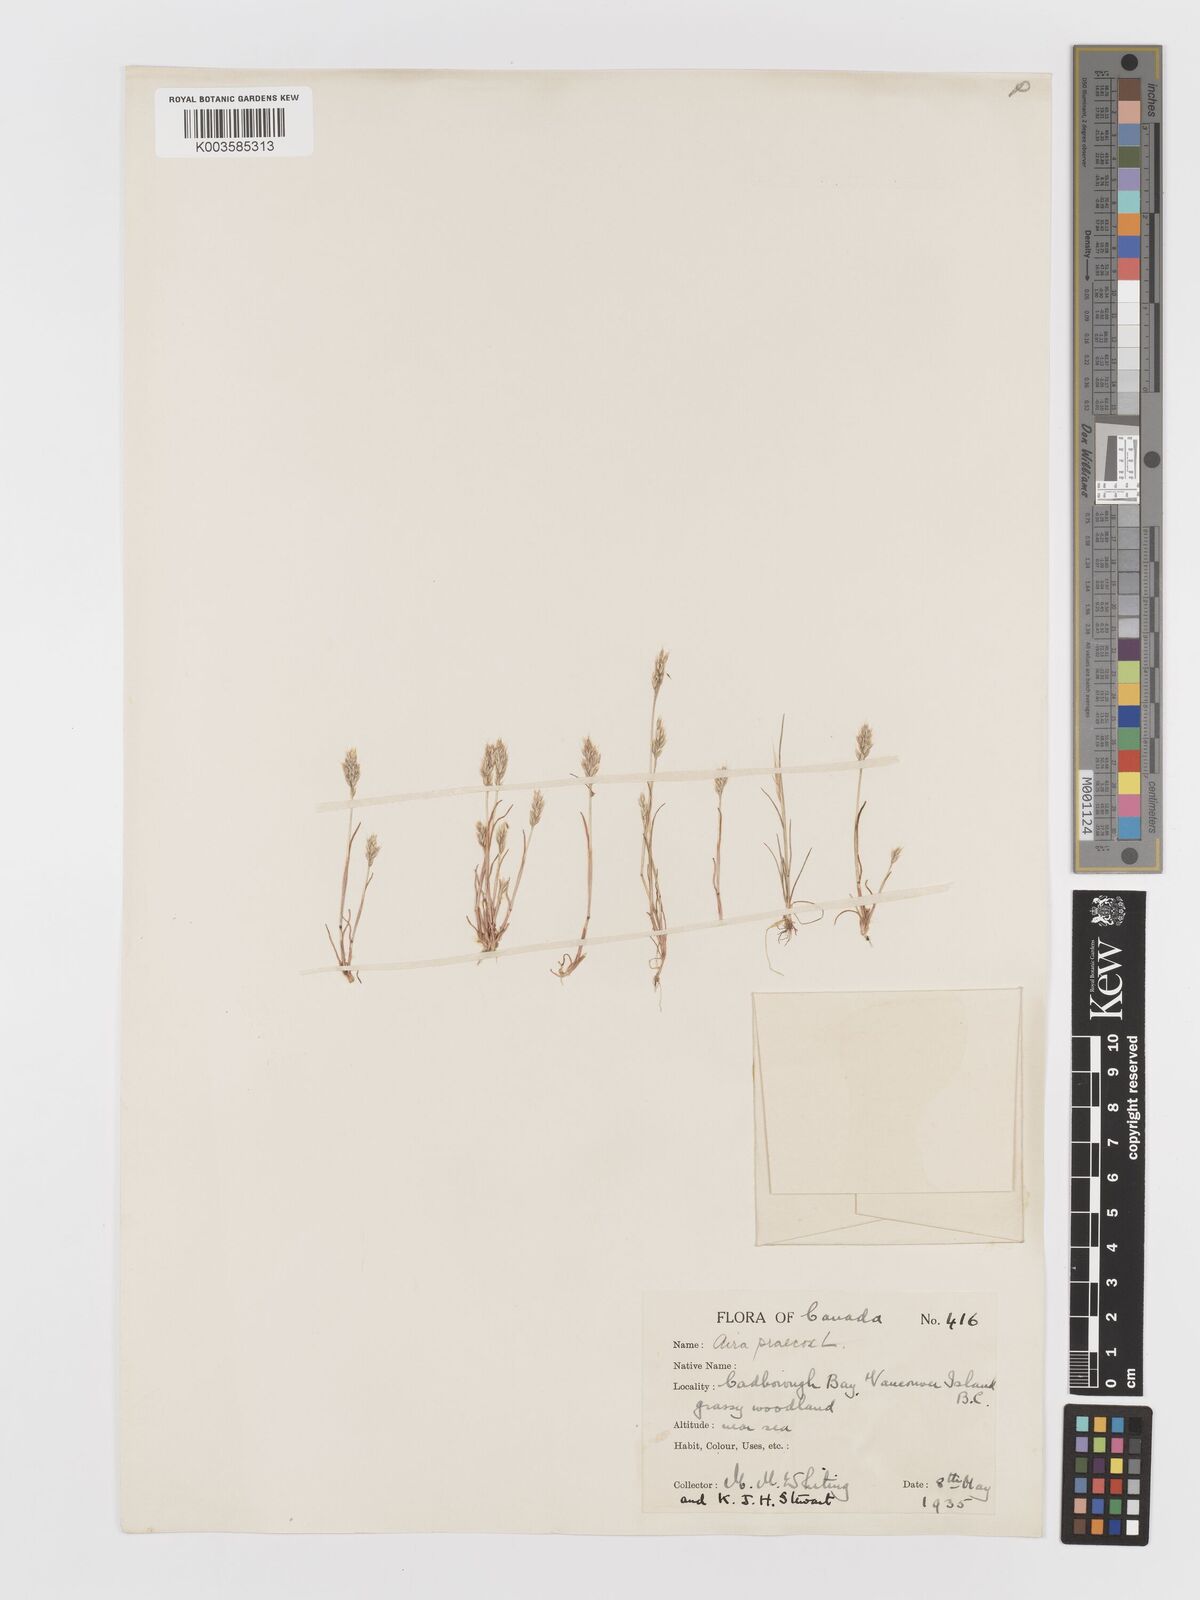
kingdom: Plantae
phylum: Tracheophyta
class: Liliopsida
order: Poales
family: Poaceae
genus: Aira
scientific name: Aira praecox
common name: Early hair-grass
